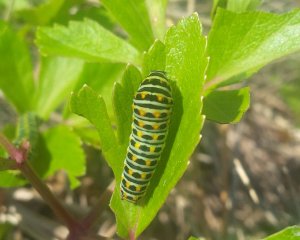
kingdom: Animalia
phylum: Arthropoda
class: Insecta
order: Lepidoptera
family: Papilionidae
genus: Papilio
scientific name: Papilio brevicauda
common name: Short-tailed Swallowtail
